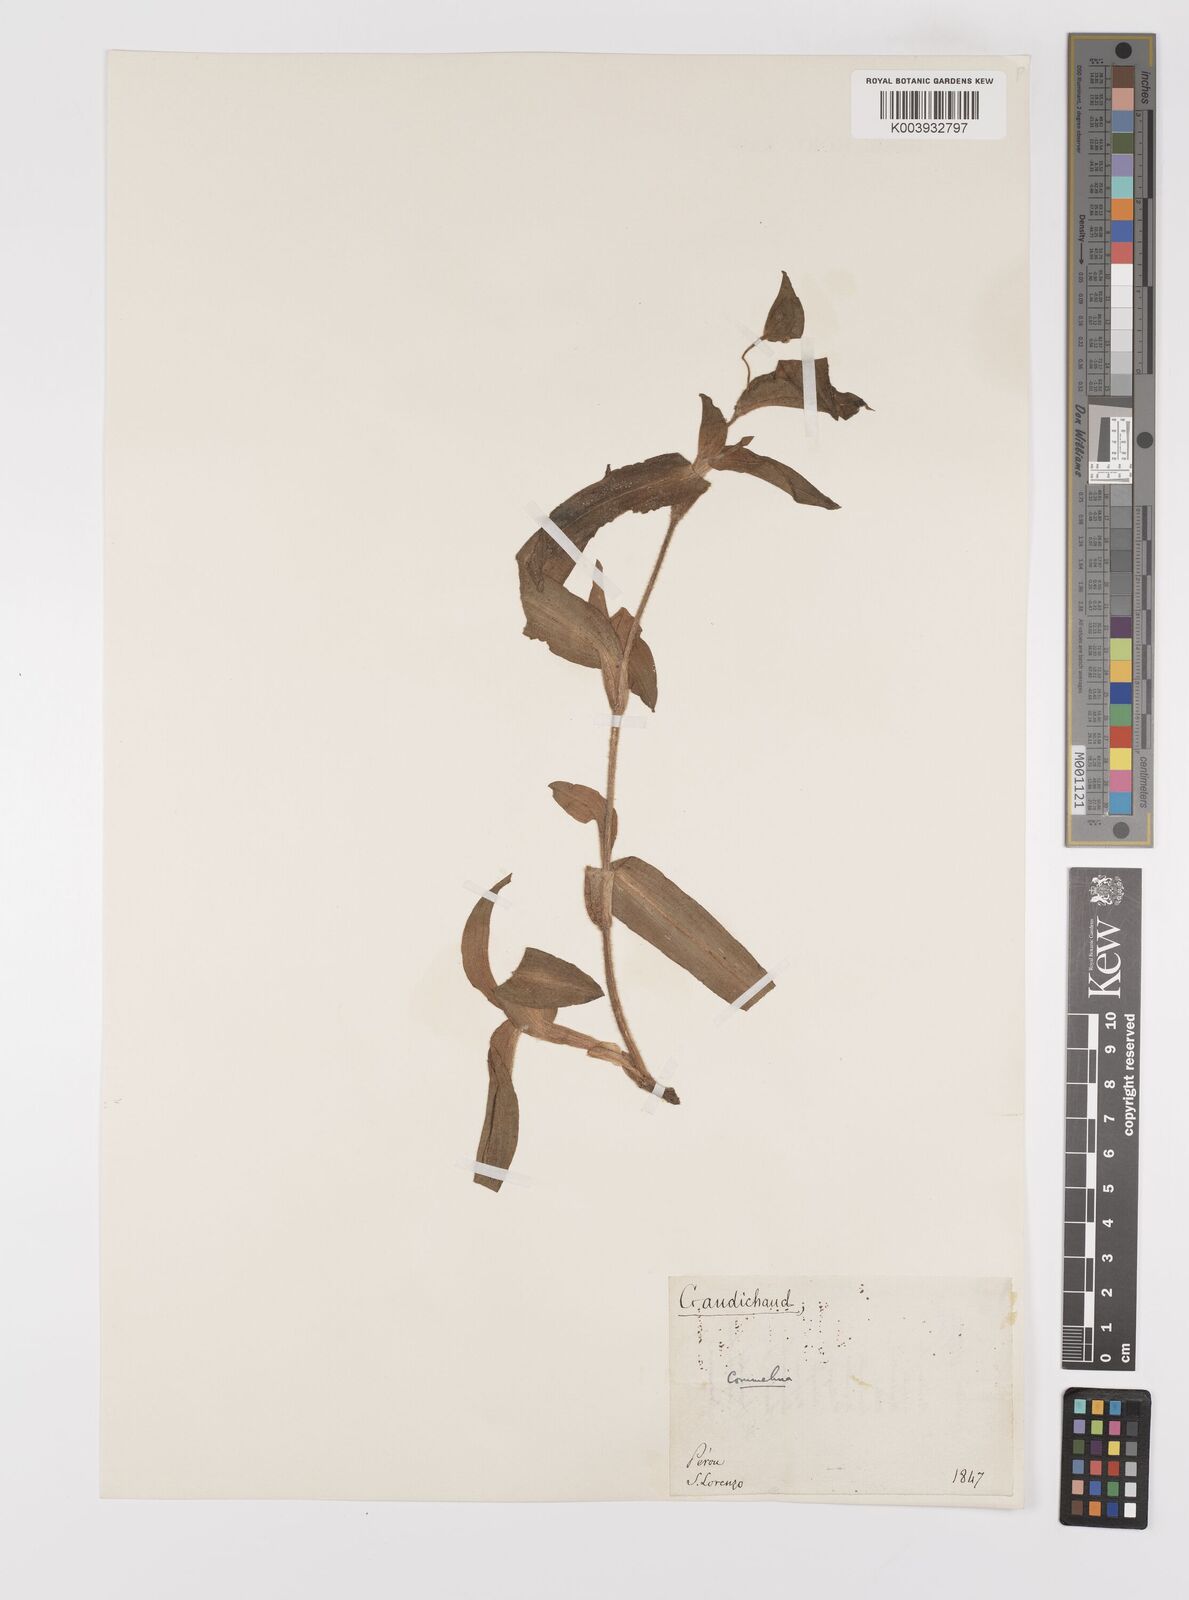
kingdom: Plantae
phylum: Tracheophyta
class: Liliopsida
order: Commelinales
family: Commelinaceae
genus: Commelina
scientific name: Commelina
